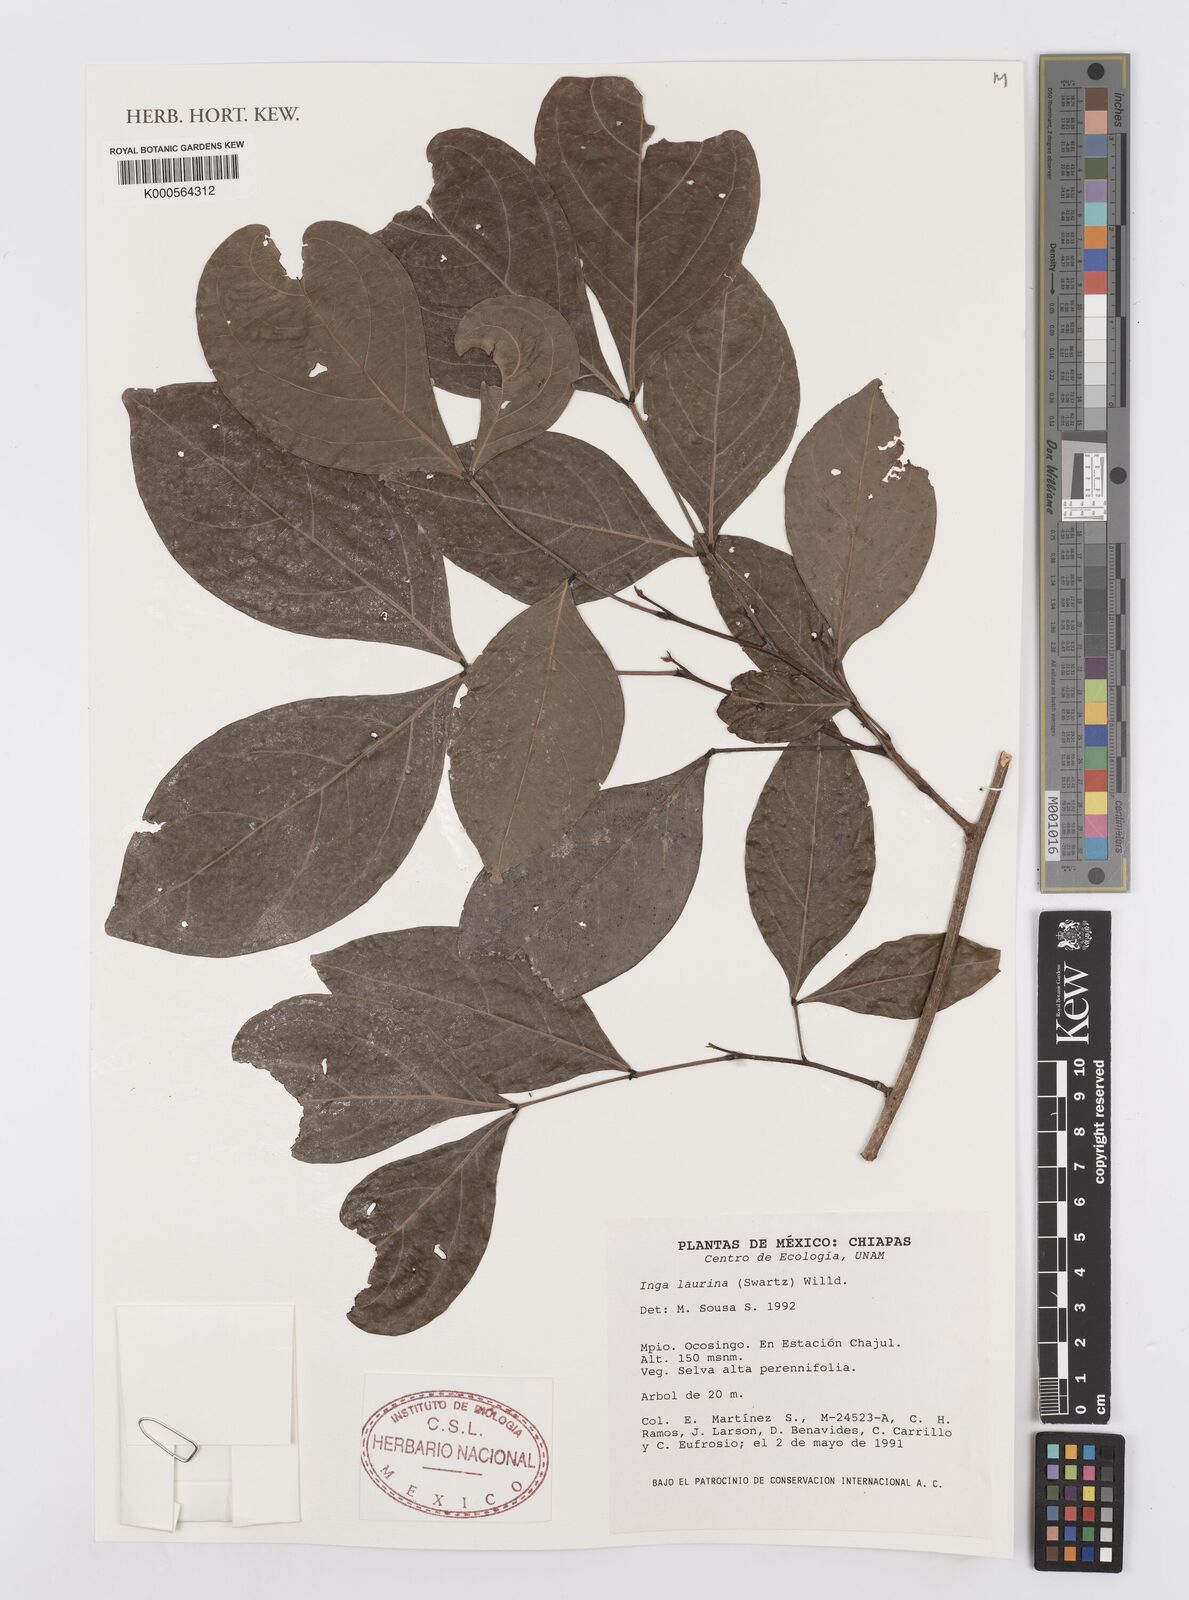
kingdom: Plantae
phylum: Tracheophyta
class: Magnoliopsida
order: Fabales
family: Fabaceae
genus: Inga
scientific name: Inga laurina
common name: Red wood
